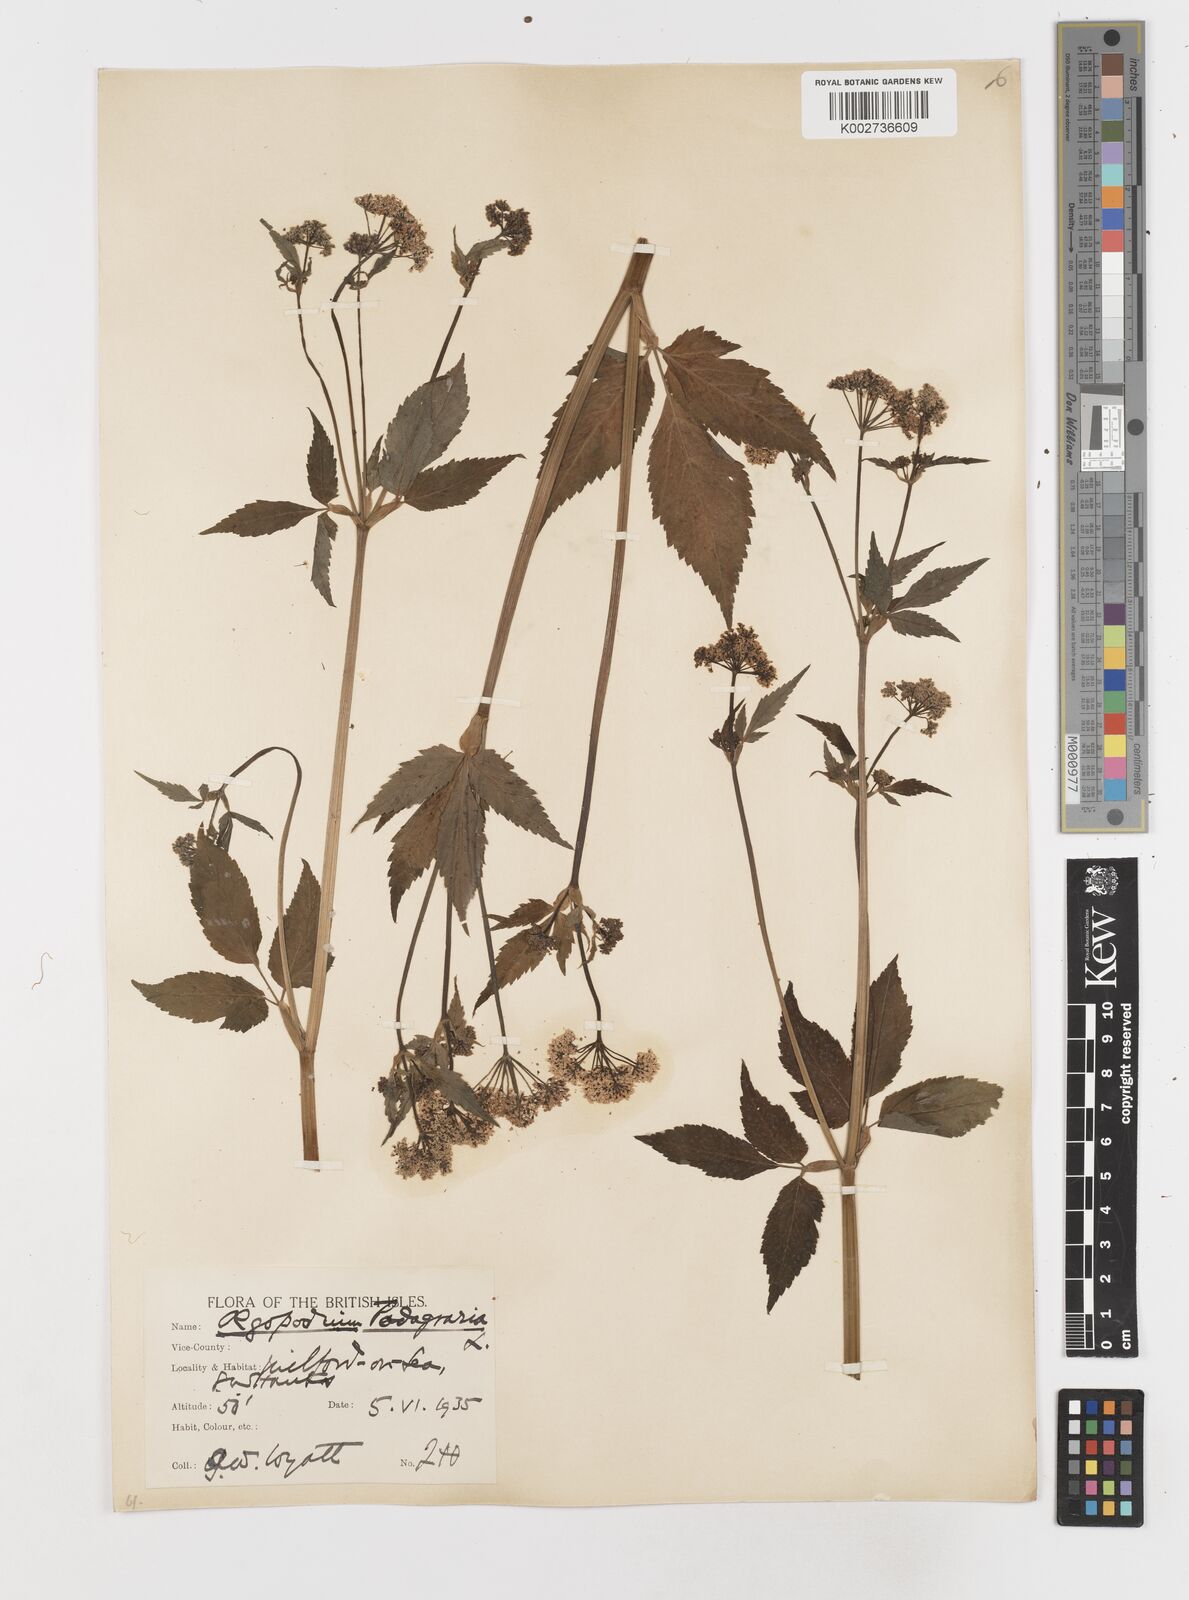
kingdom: Plantae
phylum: Tracheophyta
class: Magnoliopsida
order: Apiales
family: Apiaceae
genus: Aegopodium
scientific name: Aegopodium podagraria
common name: Ground-elder
